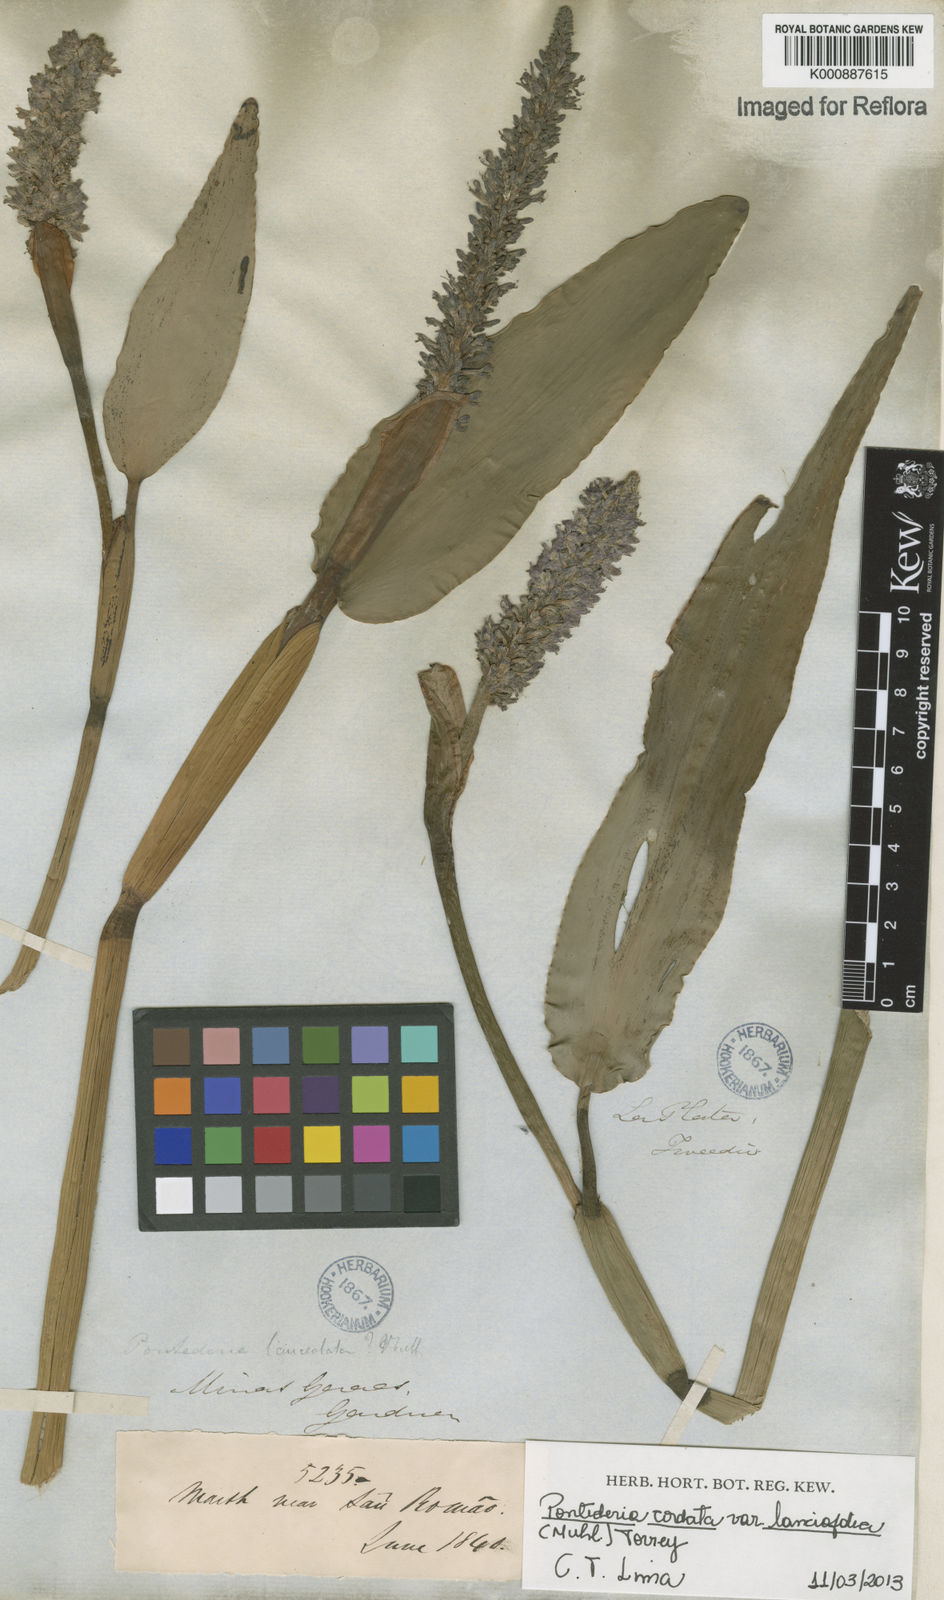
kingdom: Plantae
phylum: Tracheophyta
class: Liliopsida
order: Commelinales
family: Pontederiaceae
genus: Pontederia
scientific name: Pontederia cordata
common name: Pickerelweed
